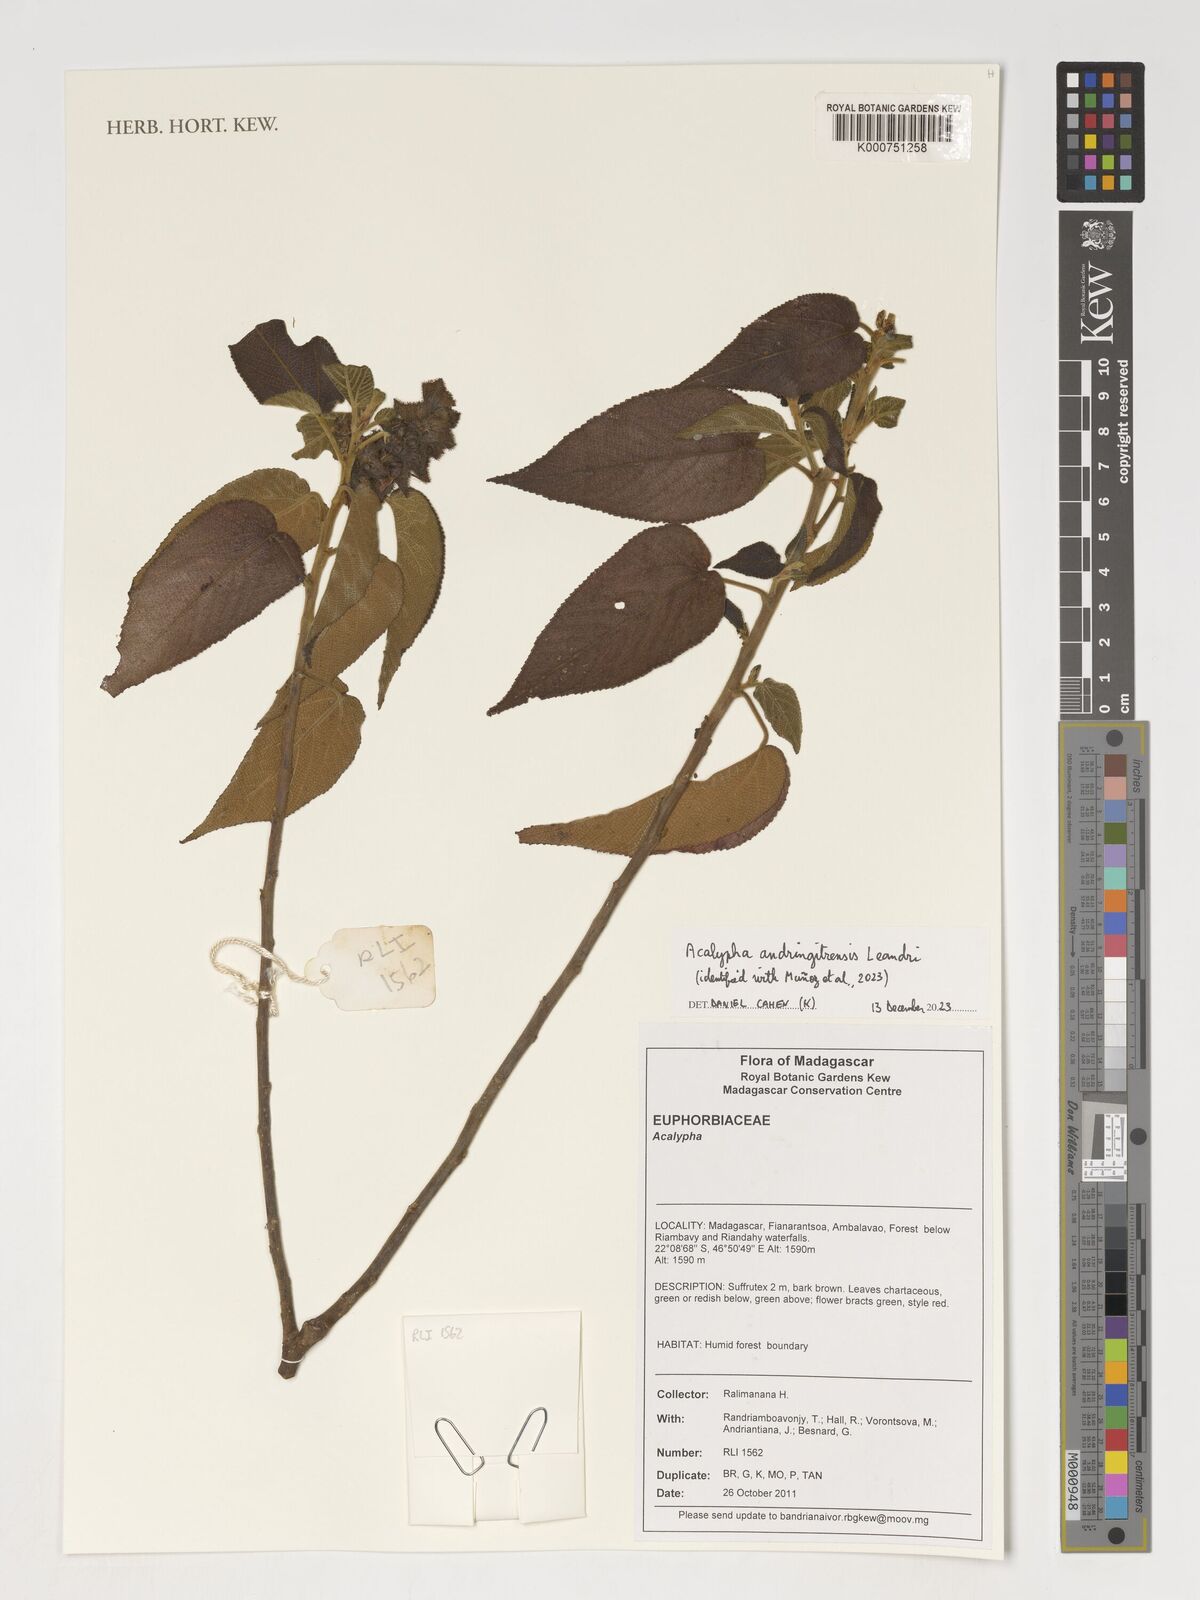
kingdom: Plantae
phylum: Tracheophyta
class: Magnoliopsida
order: Malpighiales
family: Euphorbiaceae
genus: Acalypha
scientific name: Acalypha
